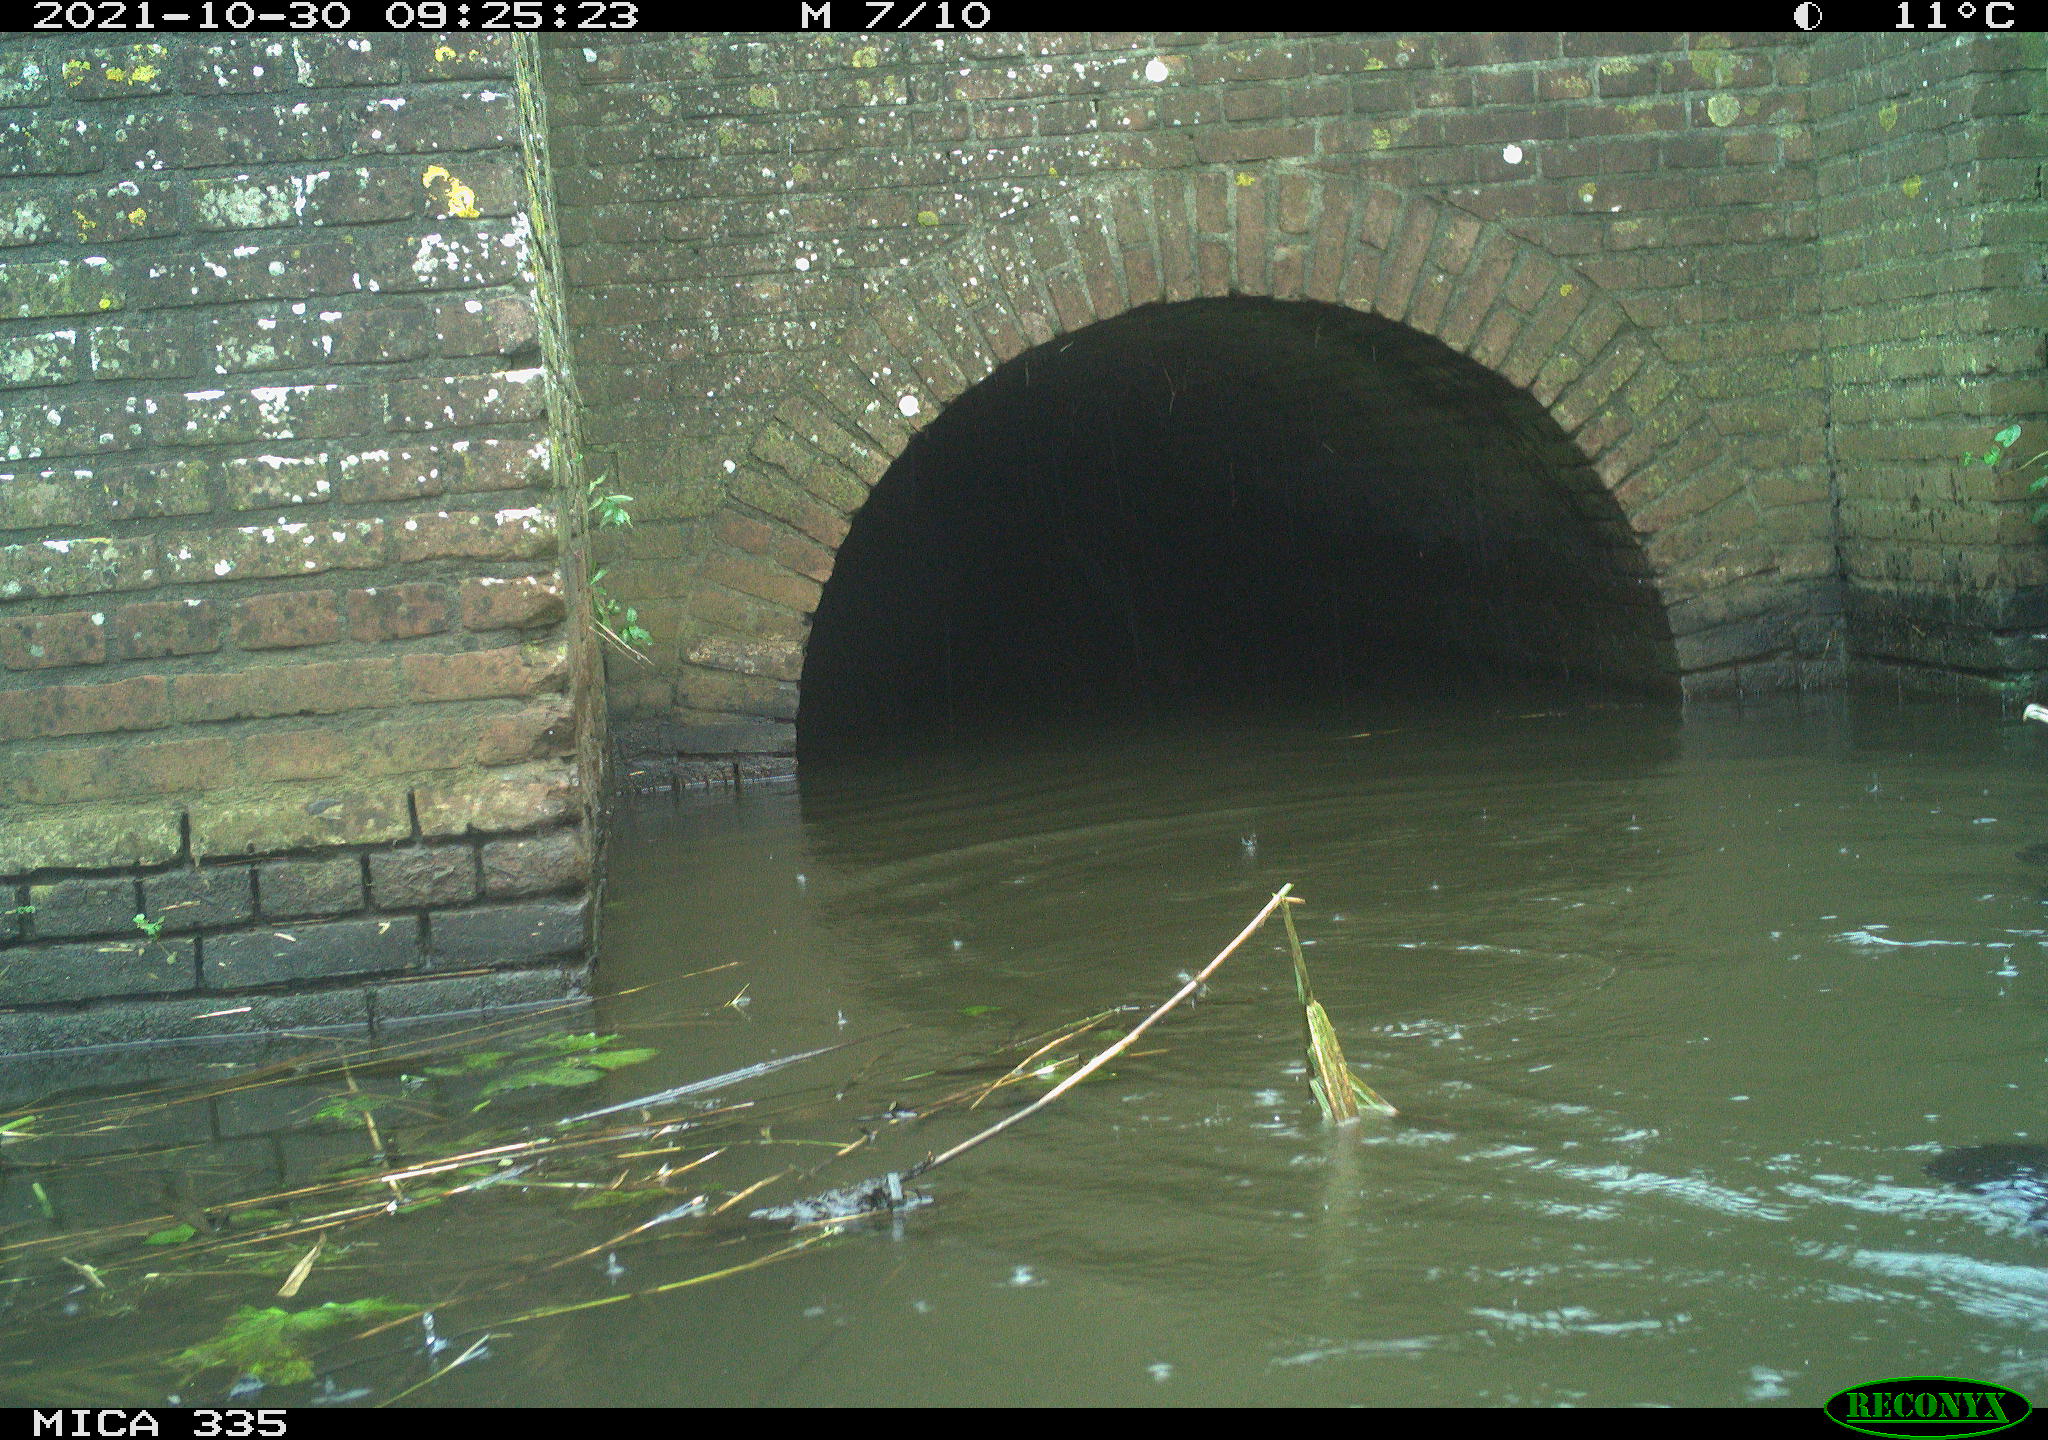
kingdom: Animalia
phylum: Chordata
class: Aves
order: Suliformes
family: Phalacrocoracidae
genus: Phalacrocorax
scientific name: Phalacrocorax carbo
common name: Great cormorant
